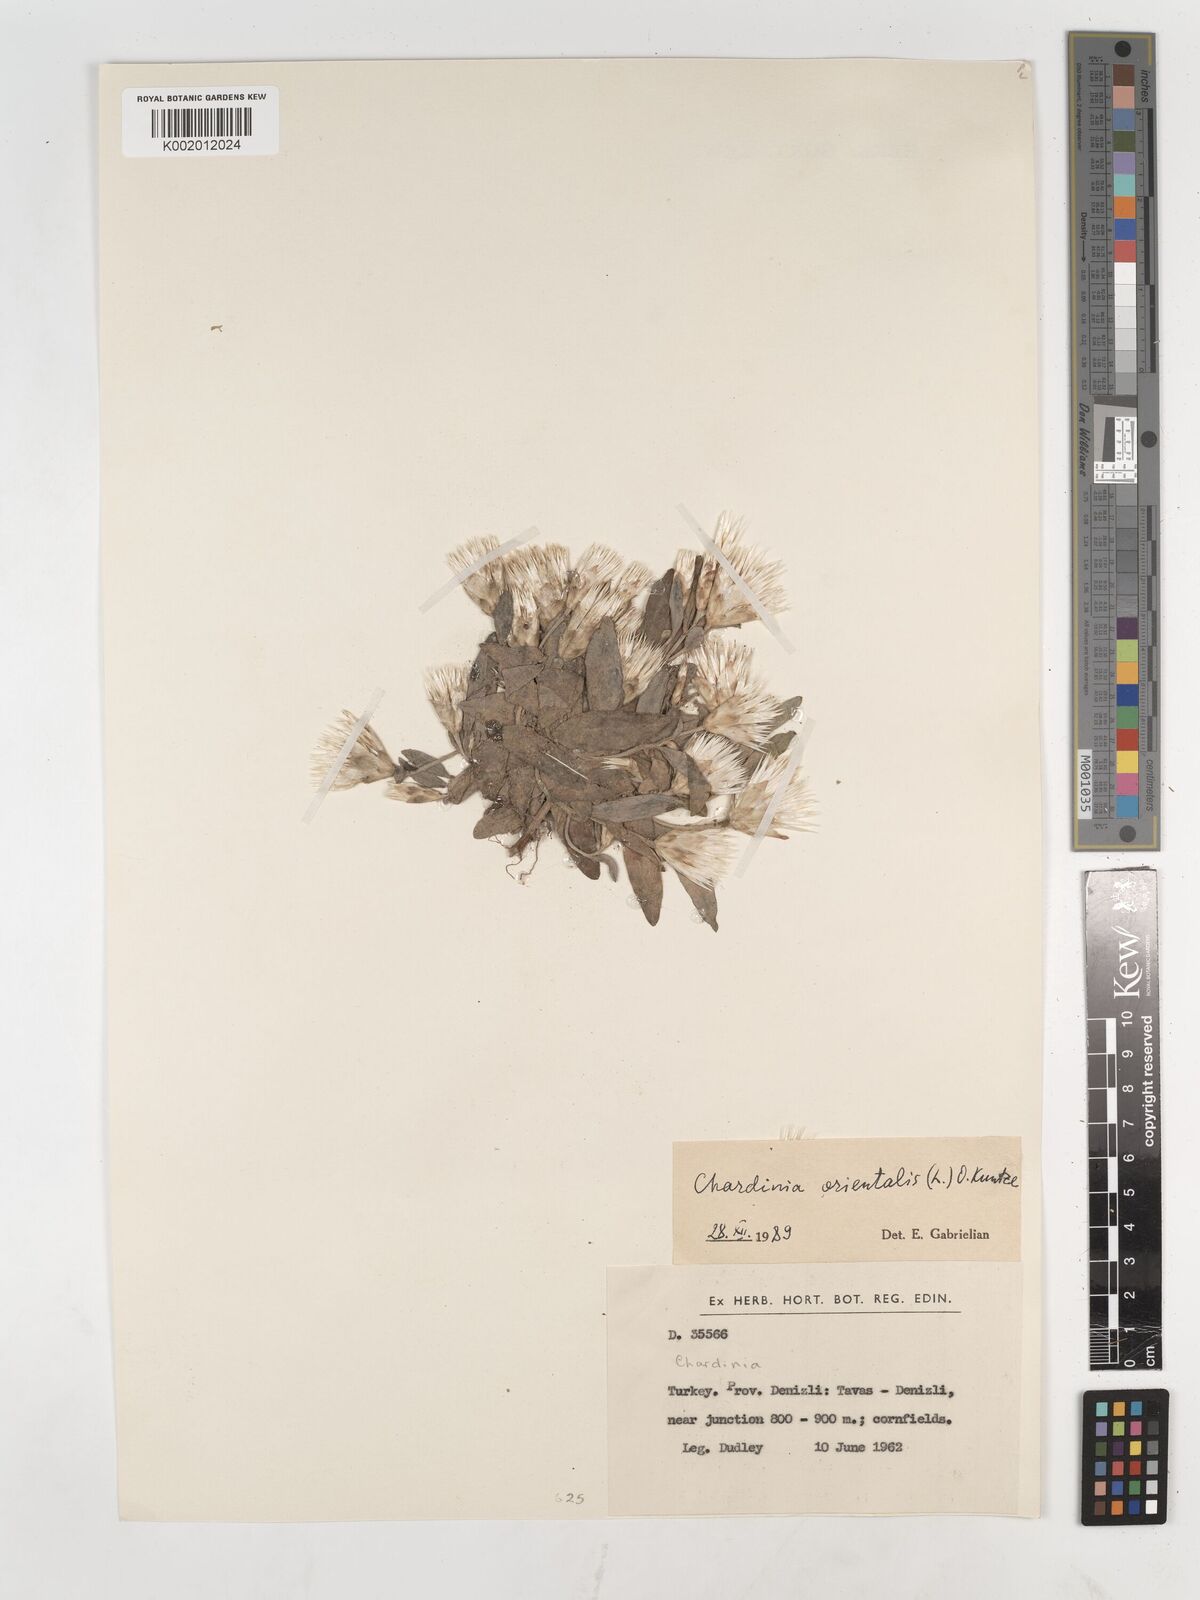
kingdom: Plantae
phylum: Tracheophyta
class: Magnoliopsida
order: Asterales
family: Asteraceae
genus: Chardinia
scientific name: Chardinia orientalis
